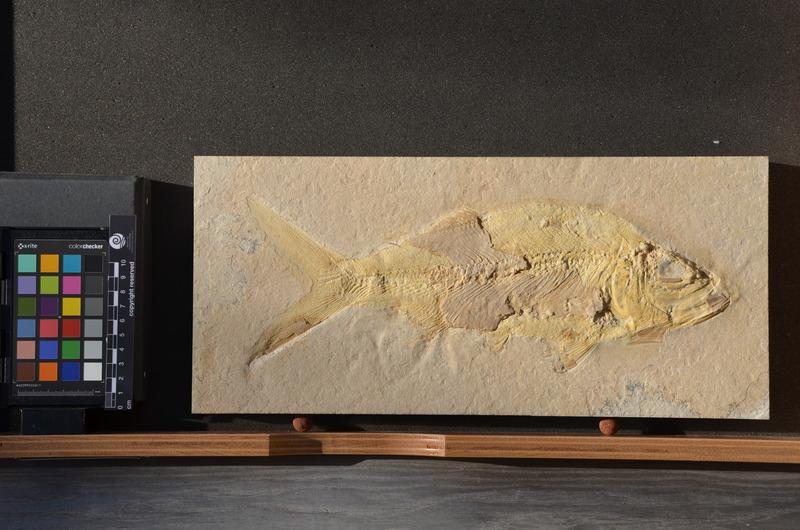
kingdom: Animalia
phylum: Chordata
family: Eurycormidae
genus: Eurycormus
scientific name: Eurycormus speciosus
